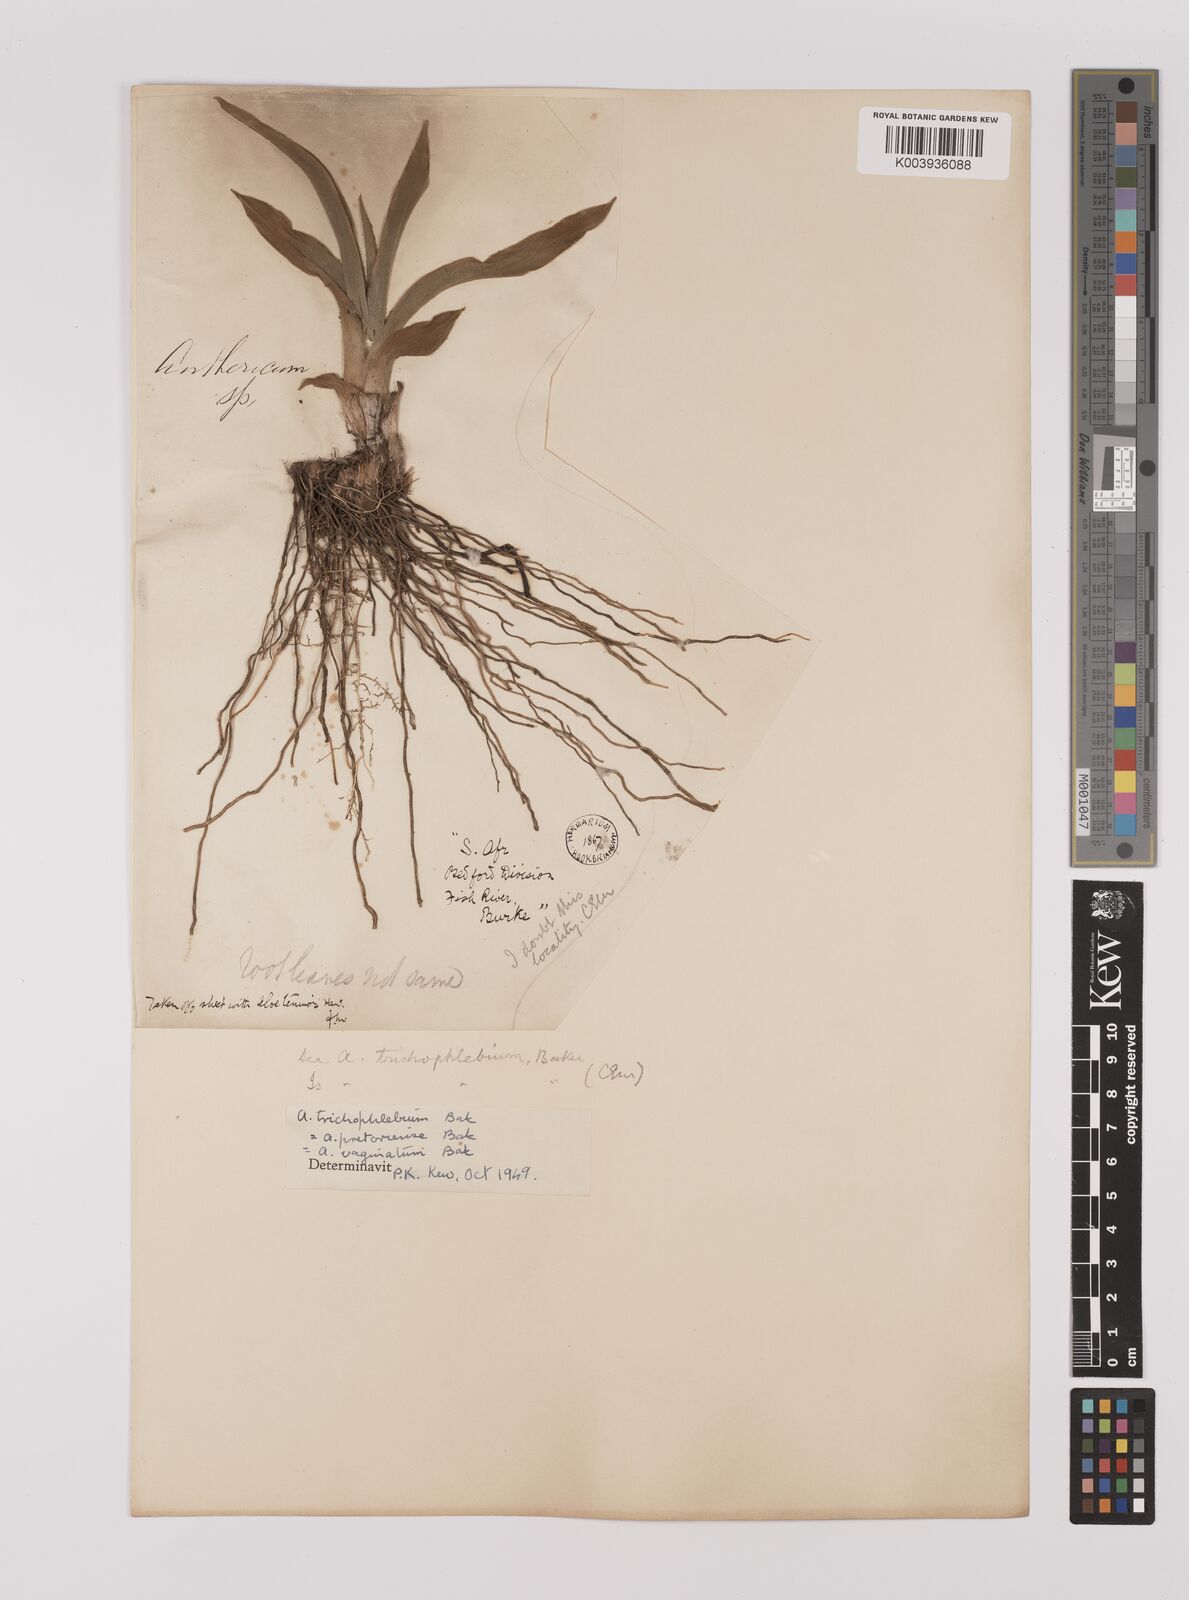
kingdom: Plantae
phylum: Tracheophyta
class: Liliopsida
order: Asparagales
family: Asparagaceae
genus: Chlorophytum
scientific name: Chlorophytum trichophlebium
